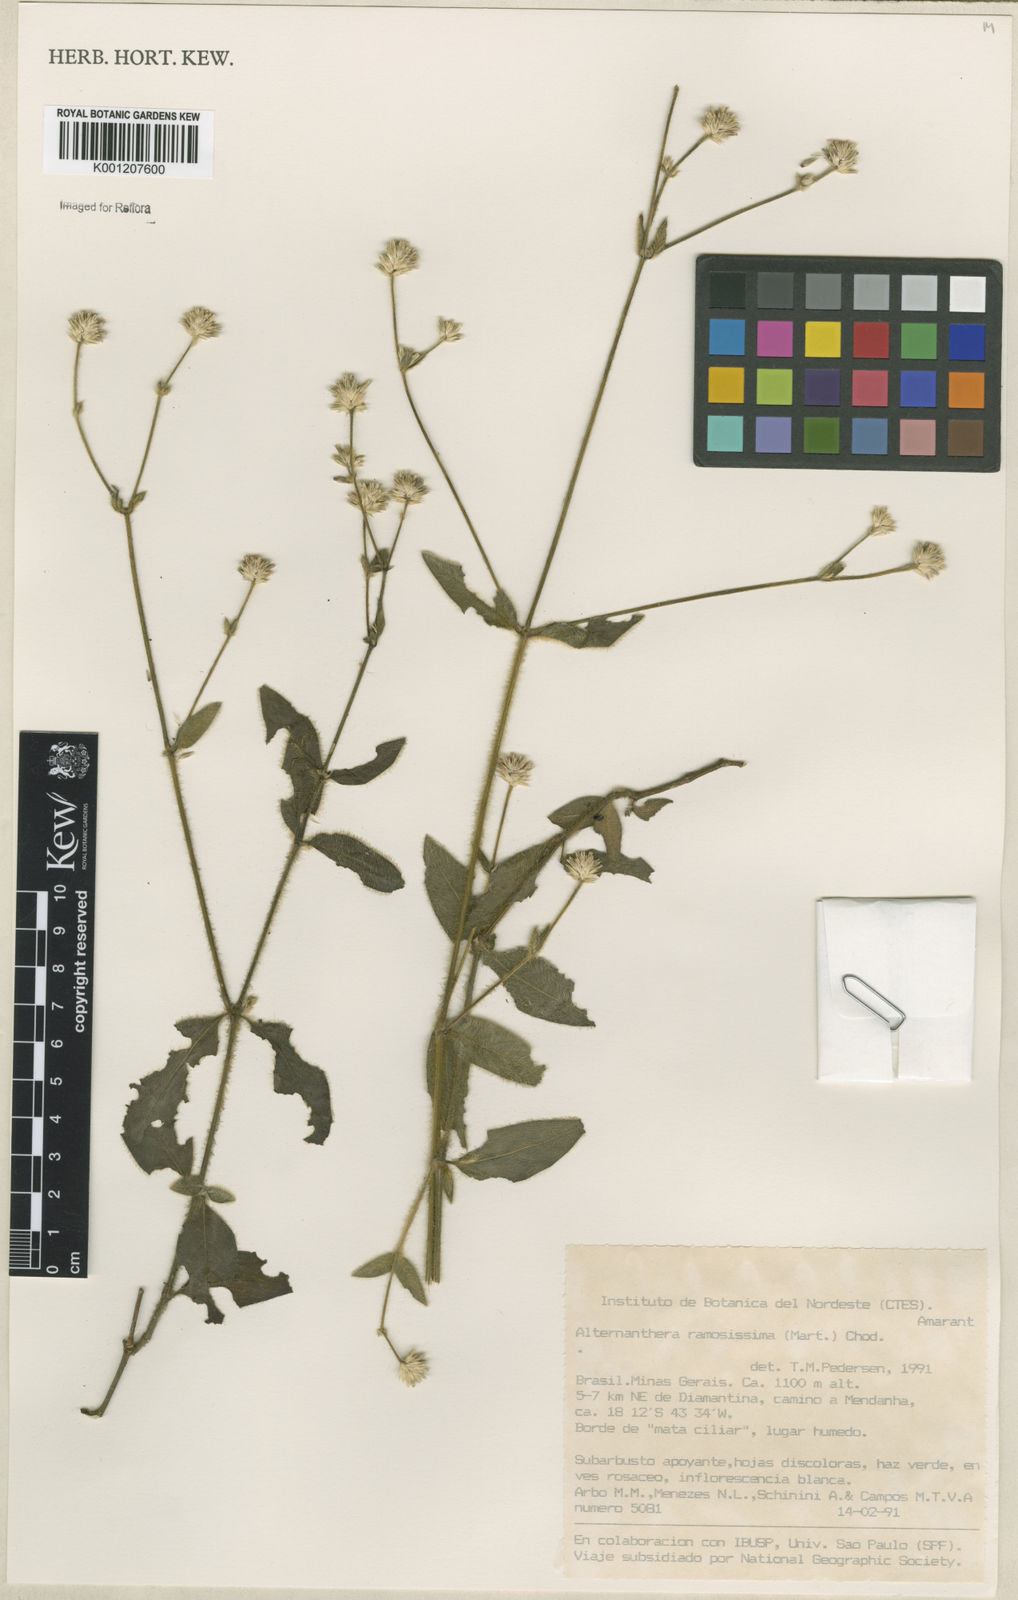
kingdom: Plantae
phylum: Tracheophyta
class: Magnoliopsida
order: Caryophyllales
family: Amaranthaceae
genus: Alternanthera
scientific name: Alternanthera ramosissima
